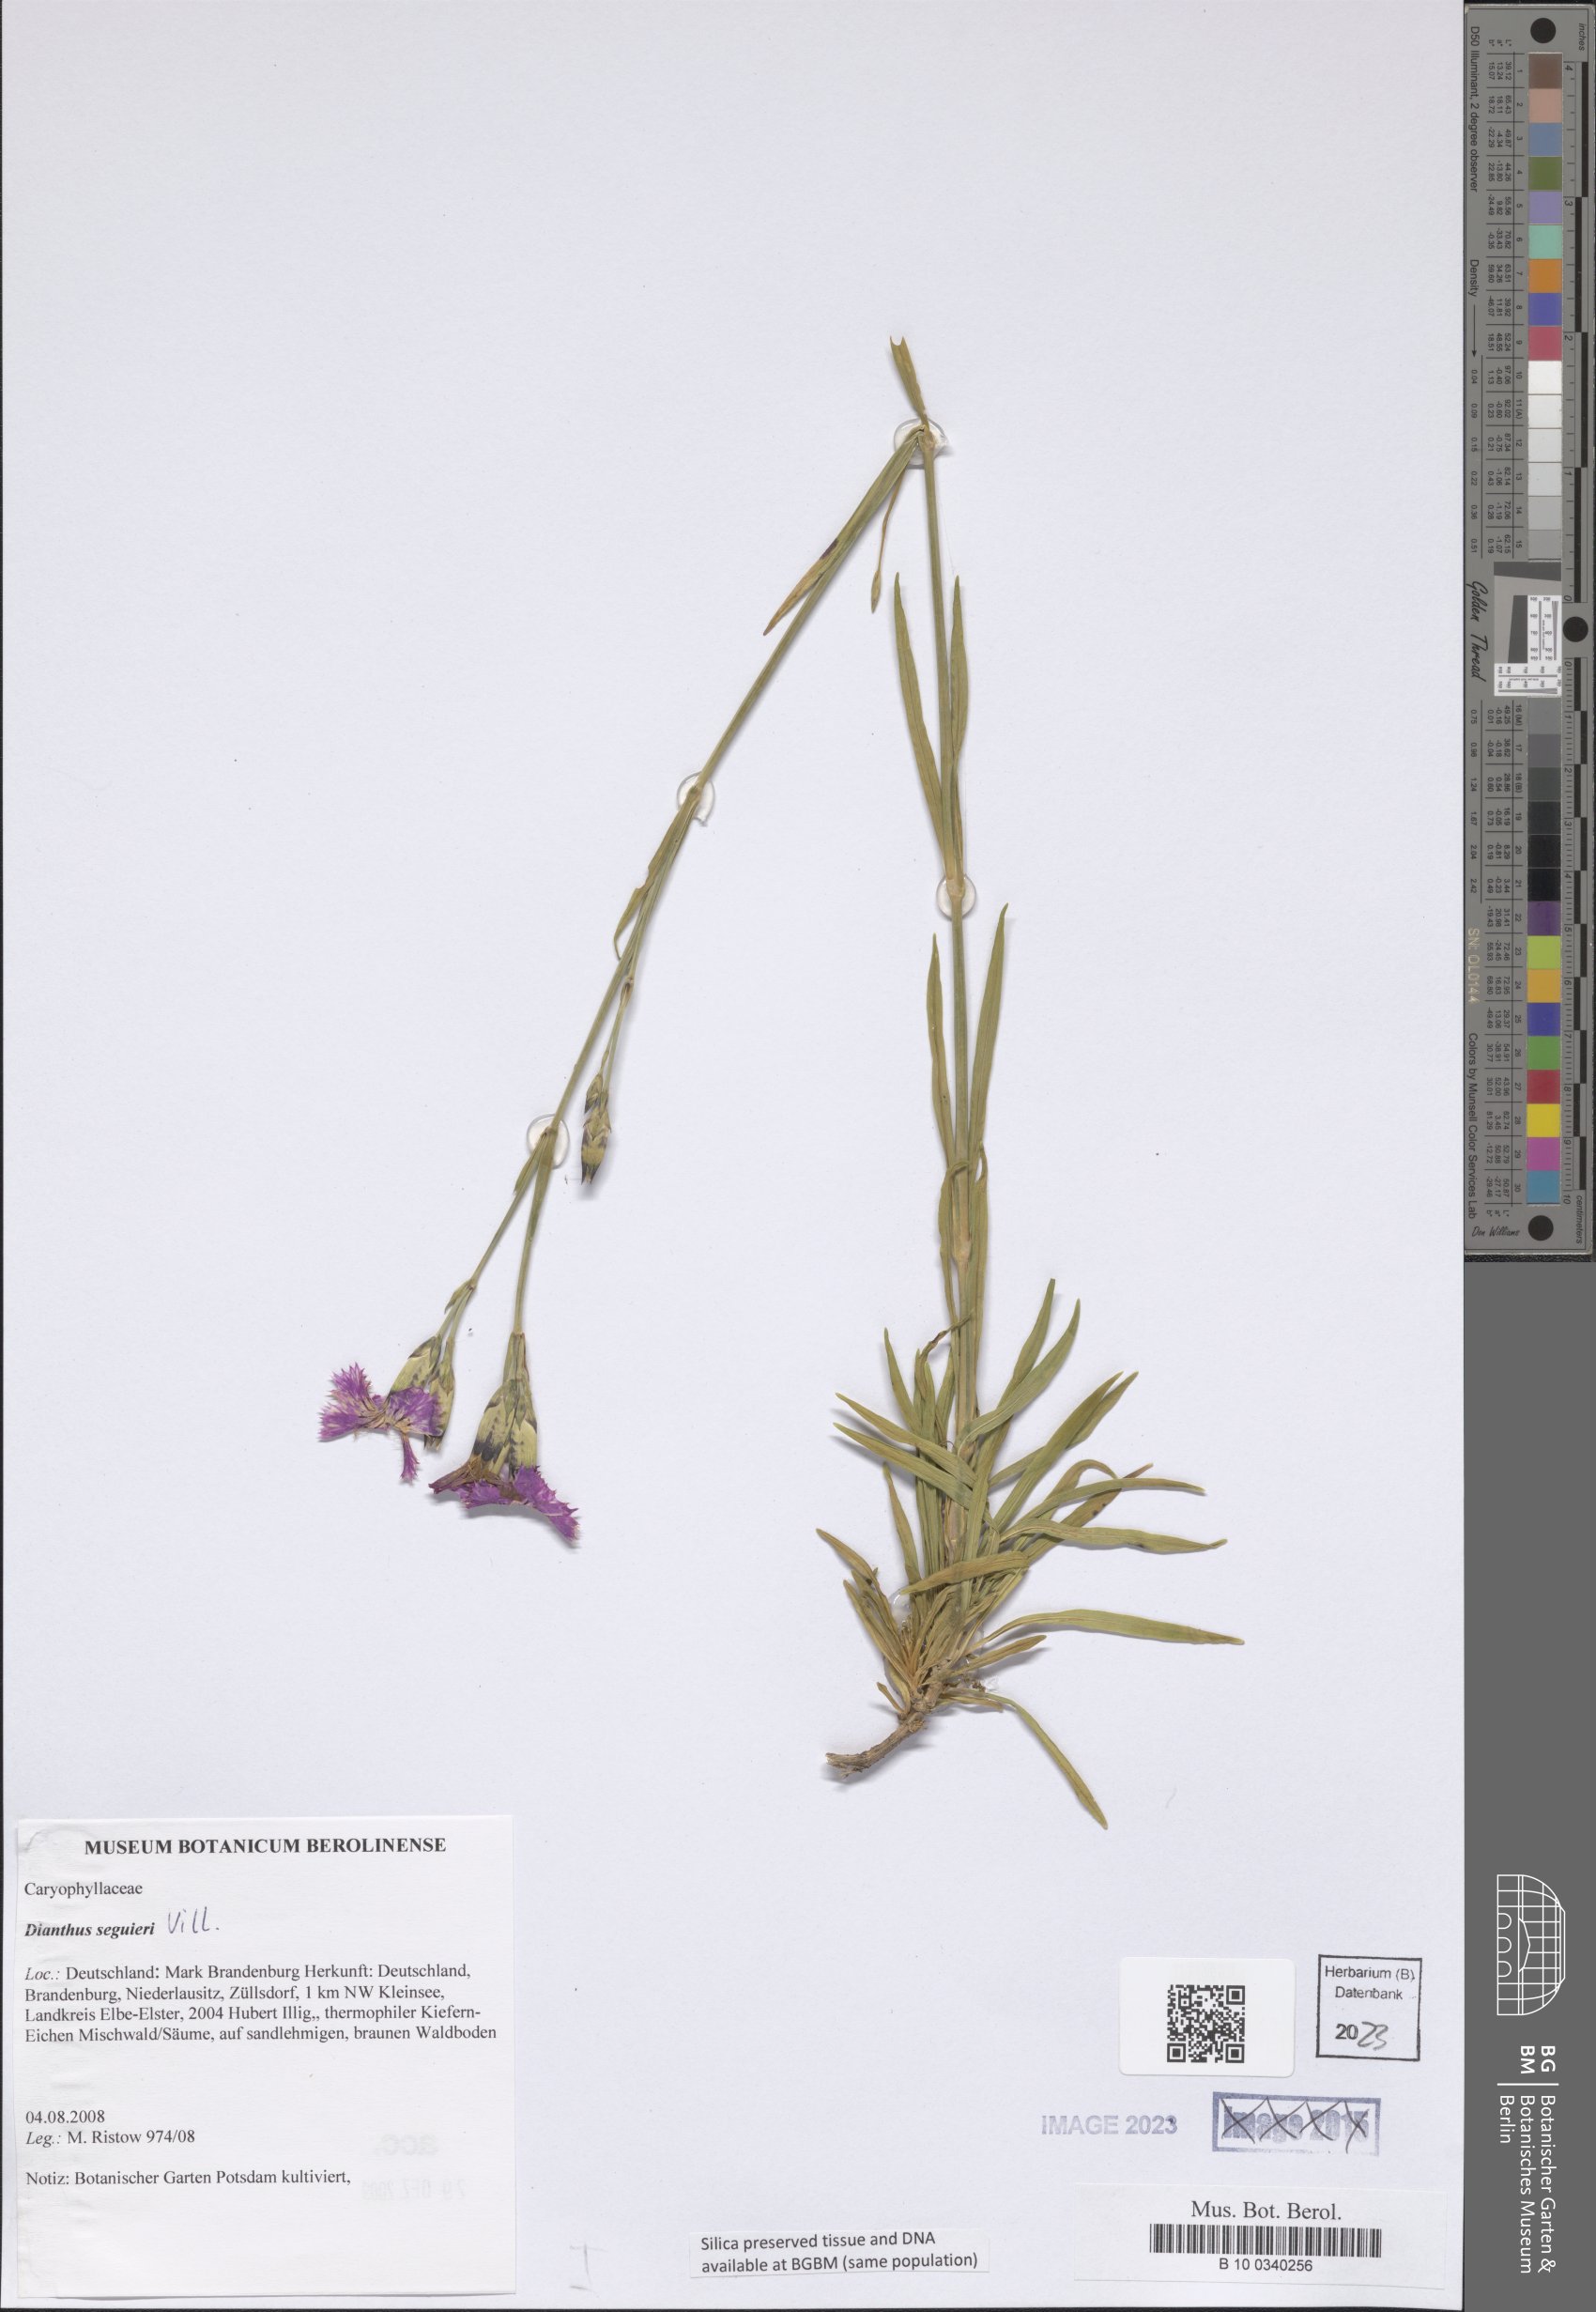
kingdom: Plantae
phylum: Tracheophyta
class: Magnoliopsida
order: Caryophyllales
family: Caryophyllaceae
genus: Dianthus
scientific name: Dianthus seguieri
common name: Ragged pink
